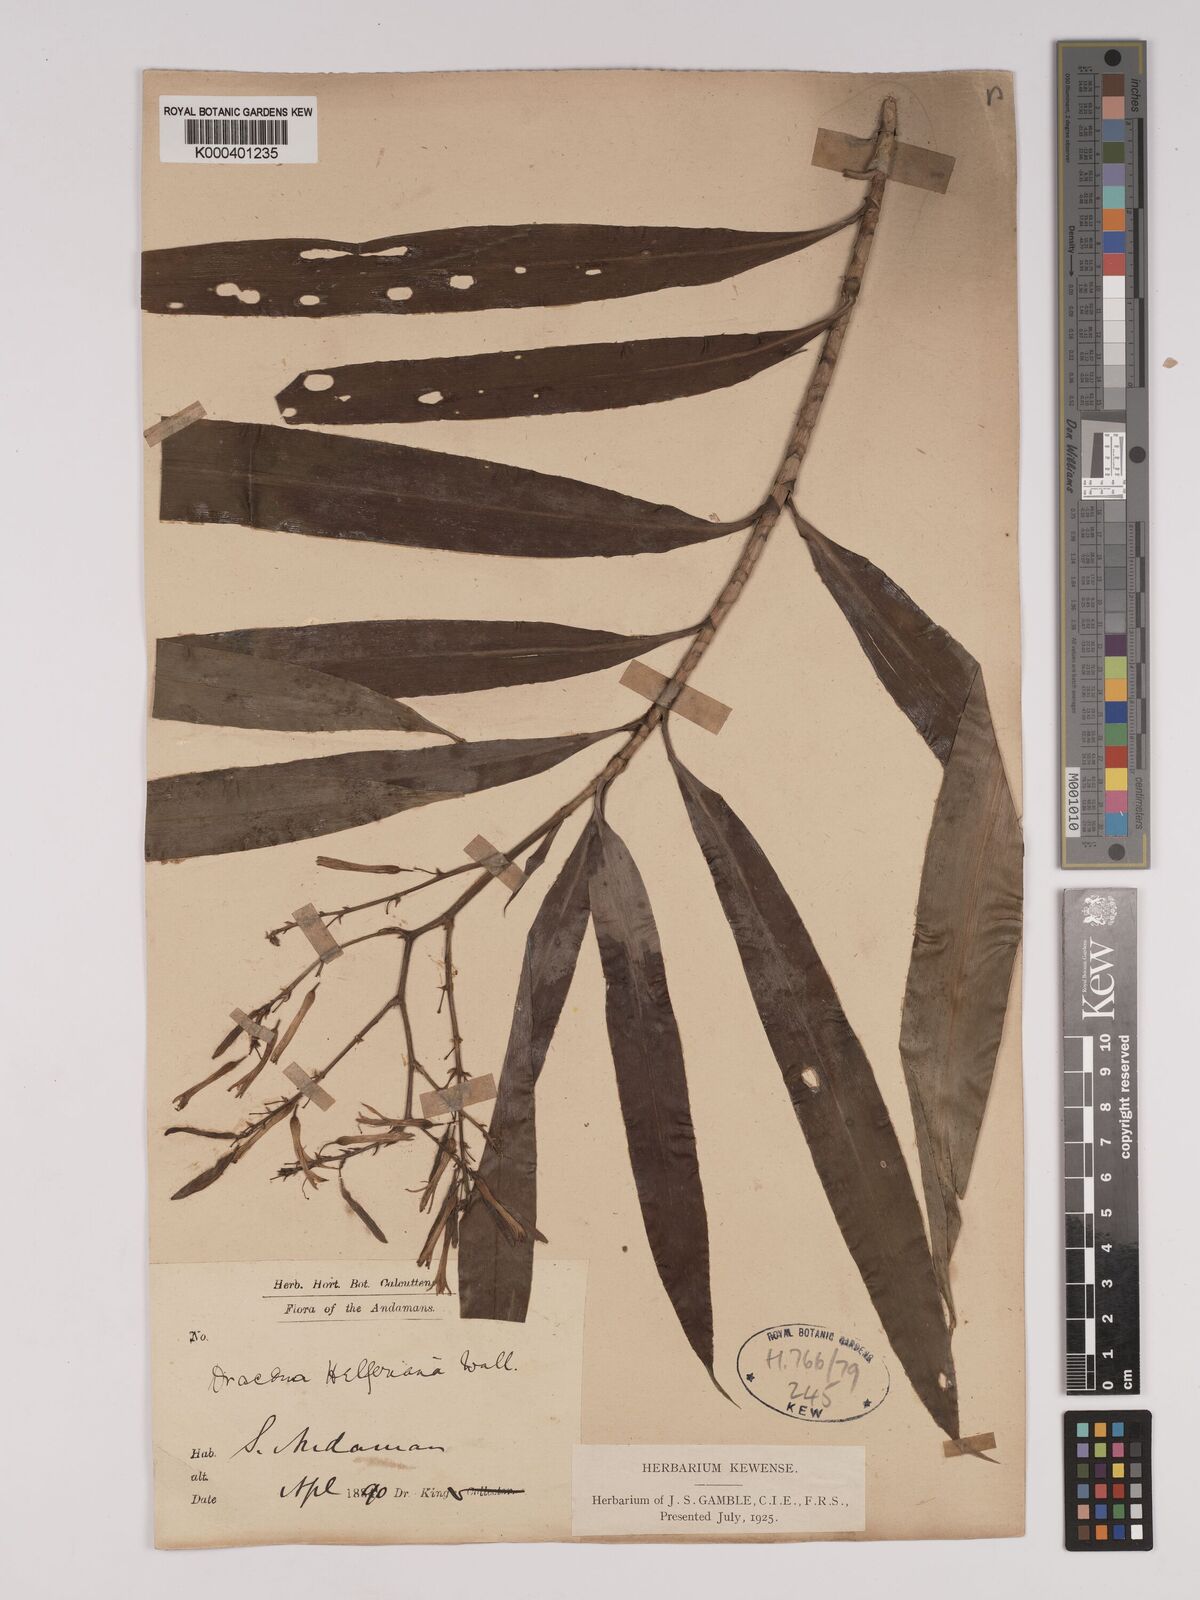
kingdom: Plantae
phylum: Tracheophyta
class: Liliopsida
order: Asparagales
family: Asparagaceae
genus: Dracaena
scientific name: Dracaena griffithii
